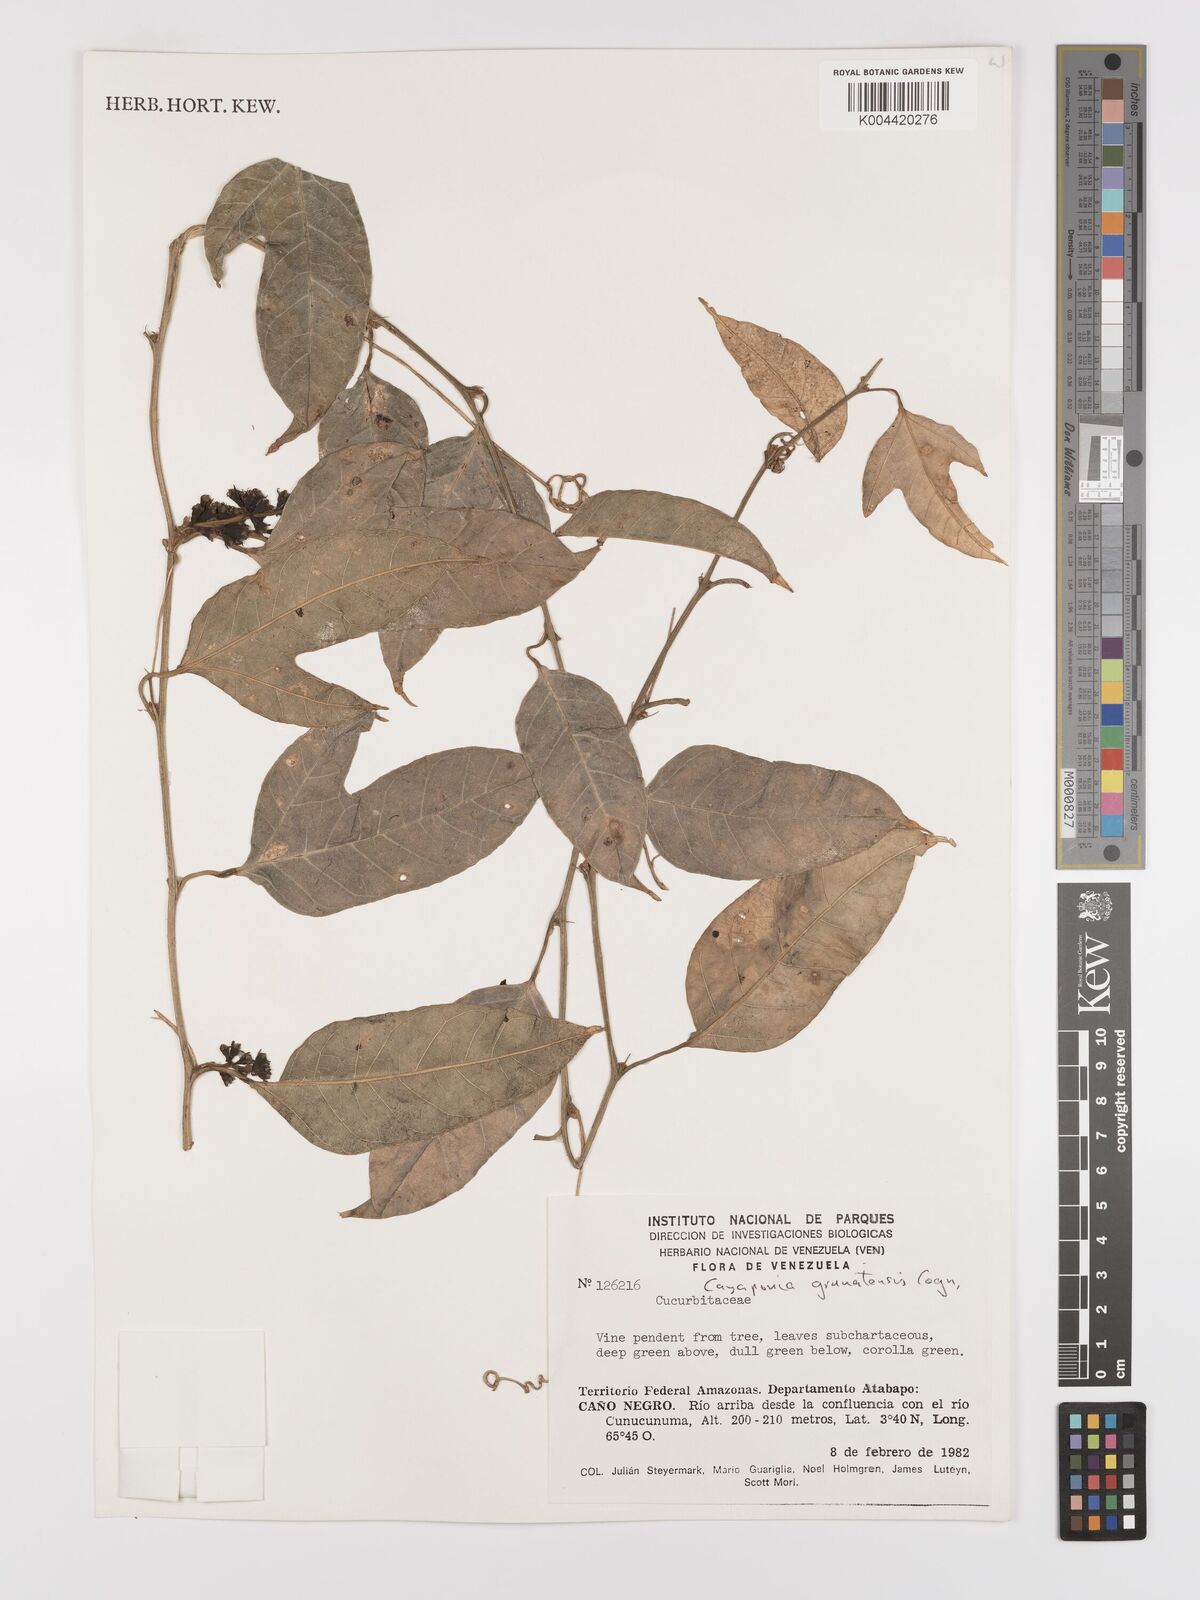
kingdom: Plantae
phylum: Tracheophyta
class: Magnoliopsida
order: Cucurbitales
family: Cucurbitaceae
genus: Cayaponia
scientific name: Cayaponia granatensis
